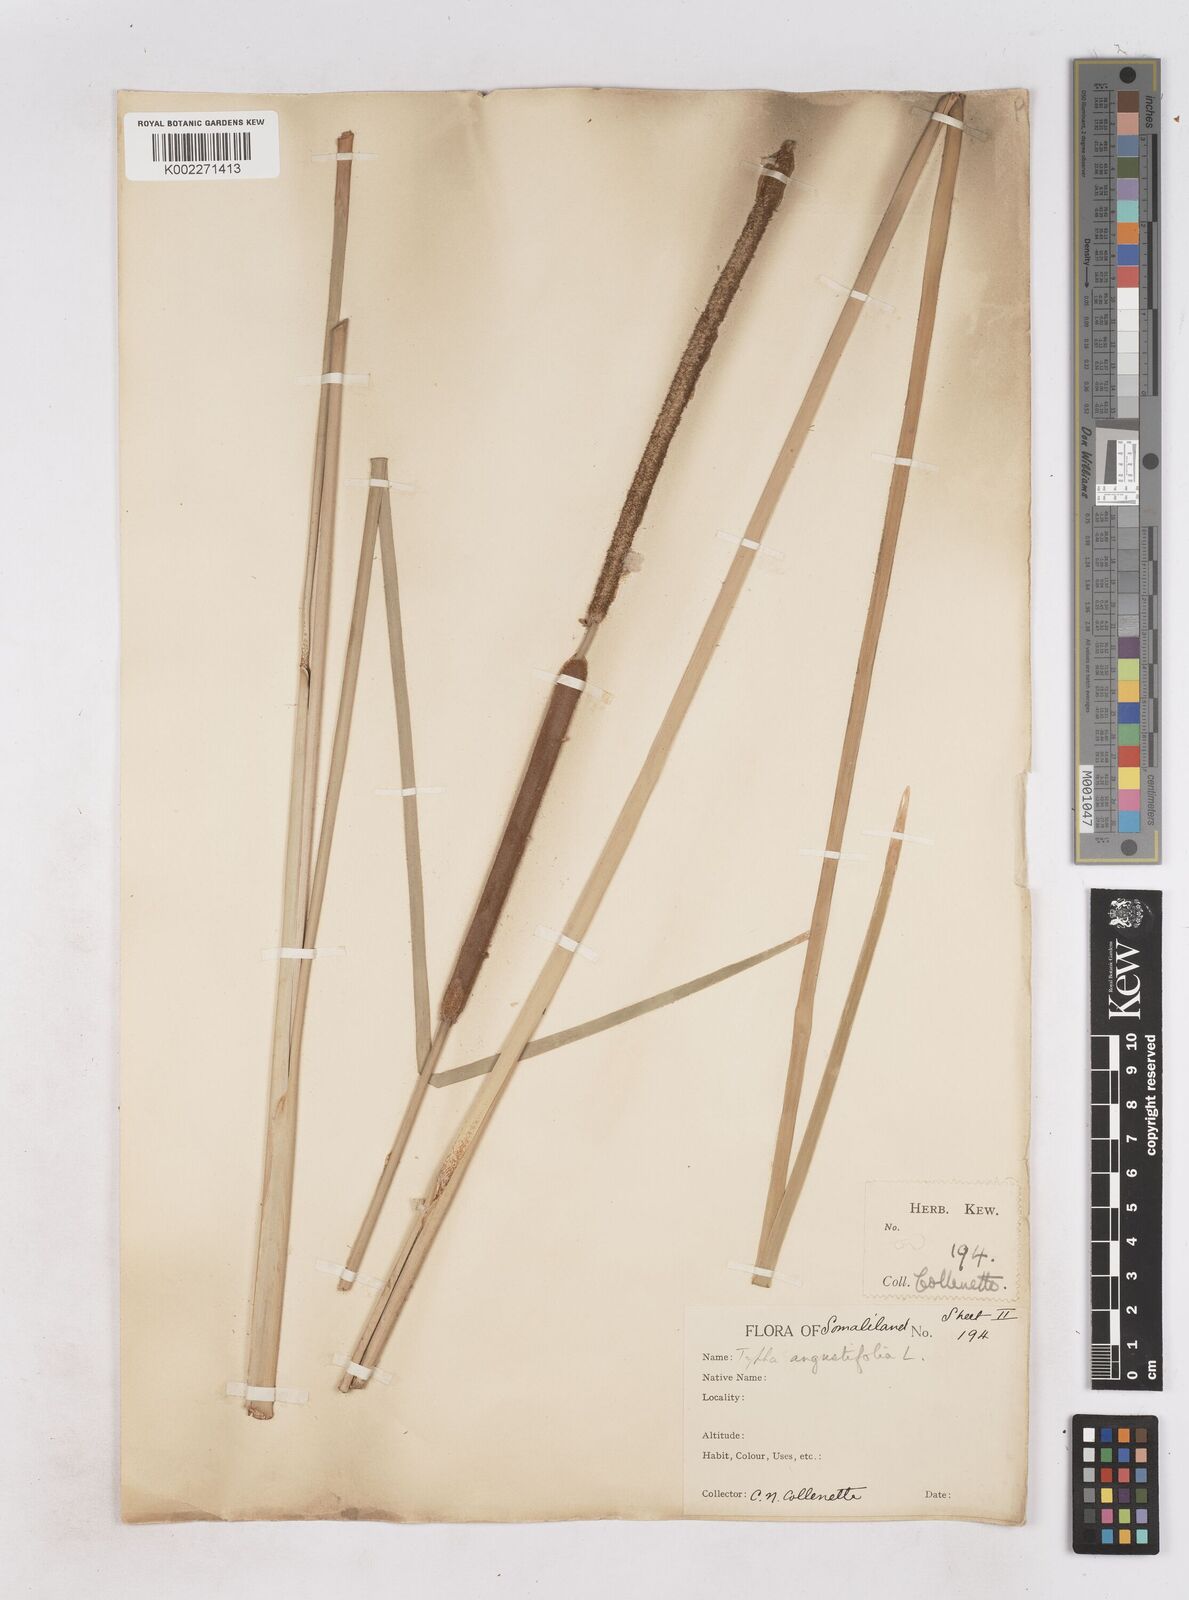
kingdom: Plantae
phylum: Tracheophyta
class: Liliopsida
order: Poales
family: Typhaceae
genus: Typha
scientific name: Typha domingensis
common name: Southern cattail
